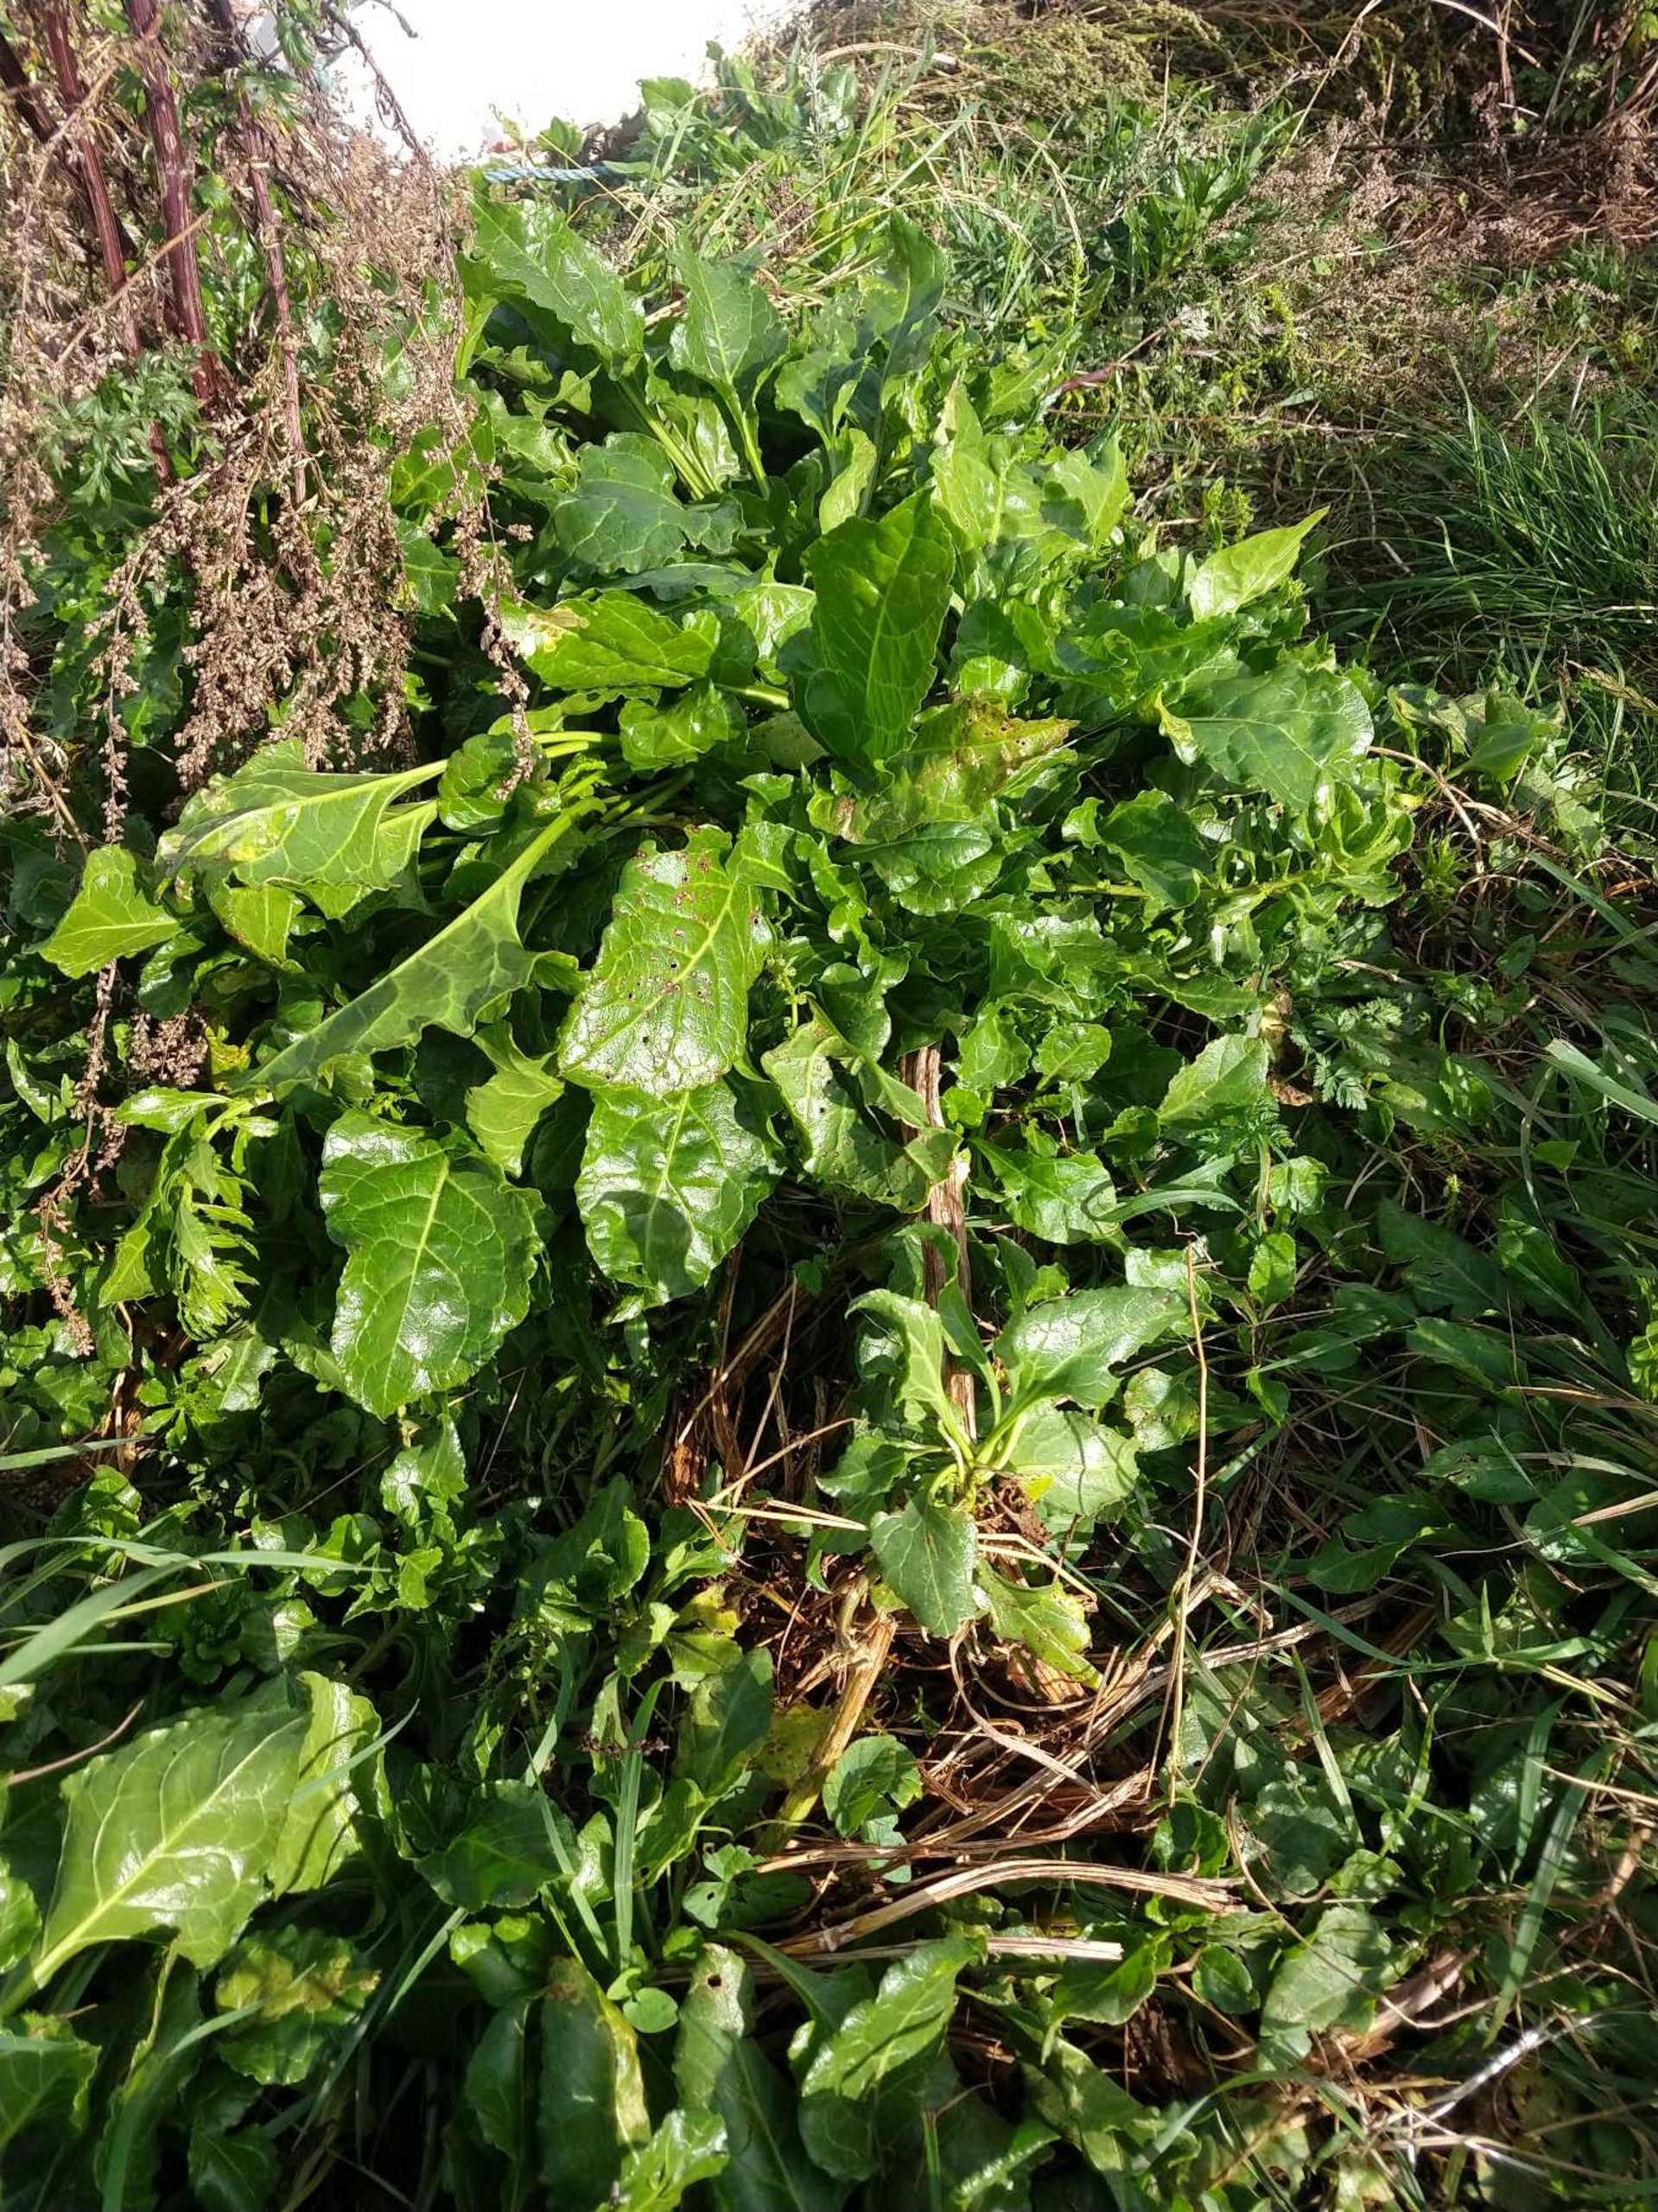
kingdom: Plantae
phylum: Tracheophyta
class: Magnoliopsida
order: Caryophyllales
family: Amaranthaceae
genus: Beta
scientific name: Beta maritima
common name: Strand-bede
